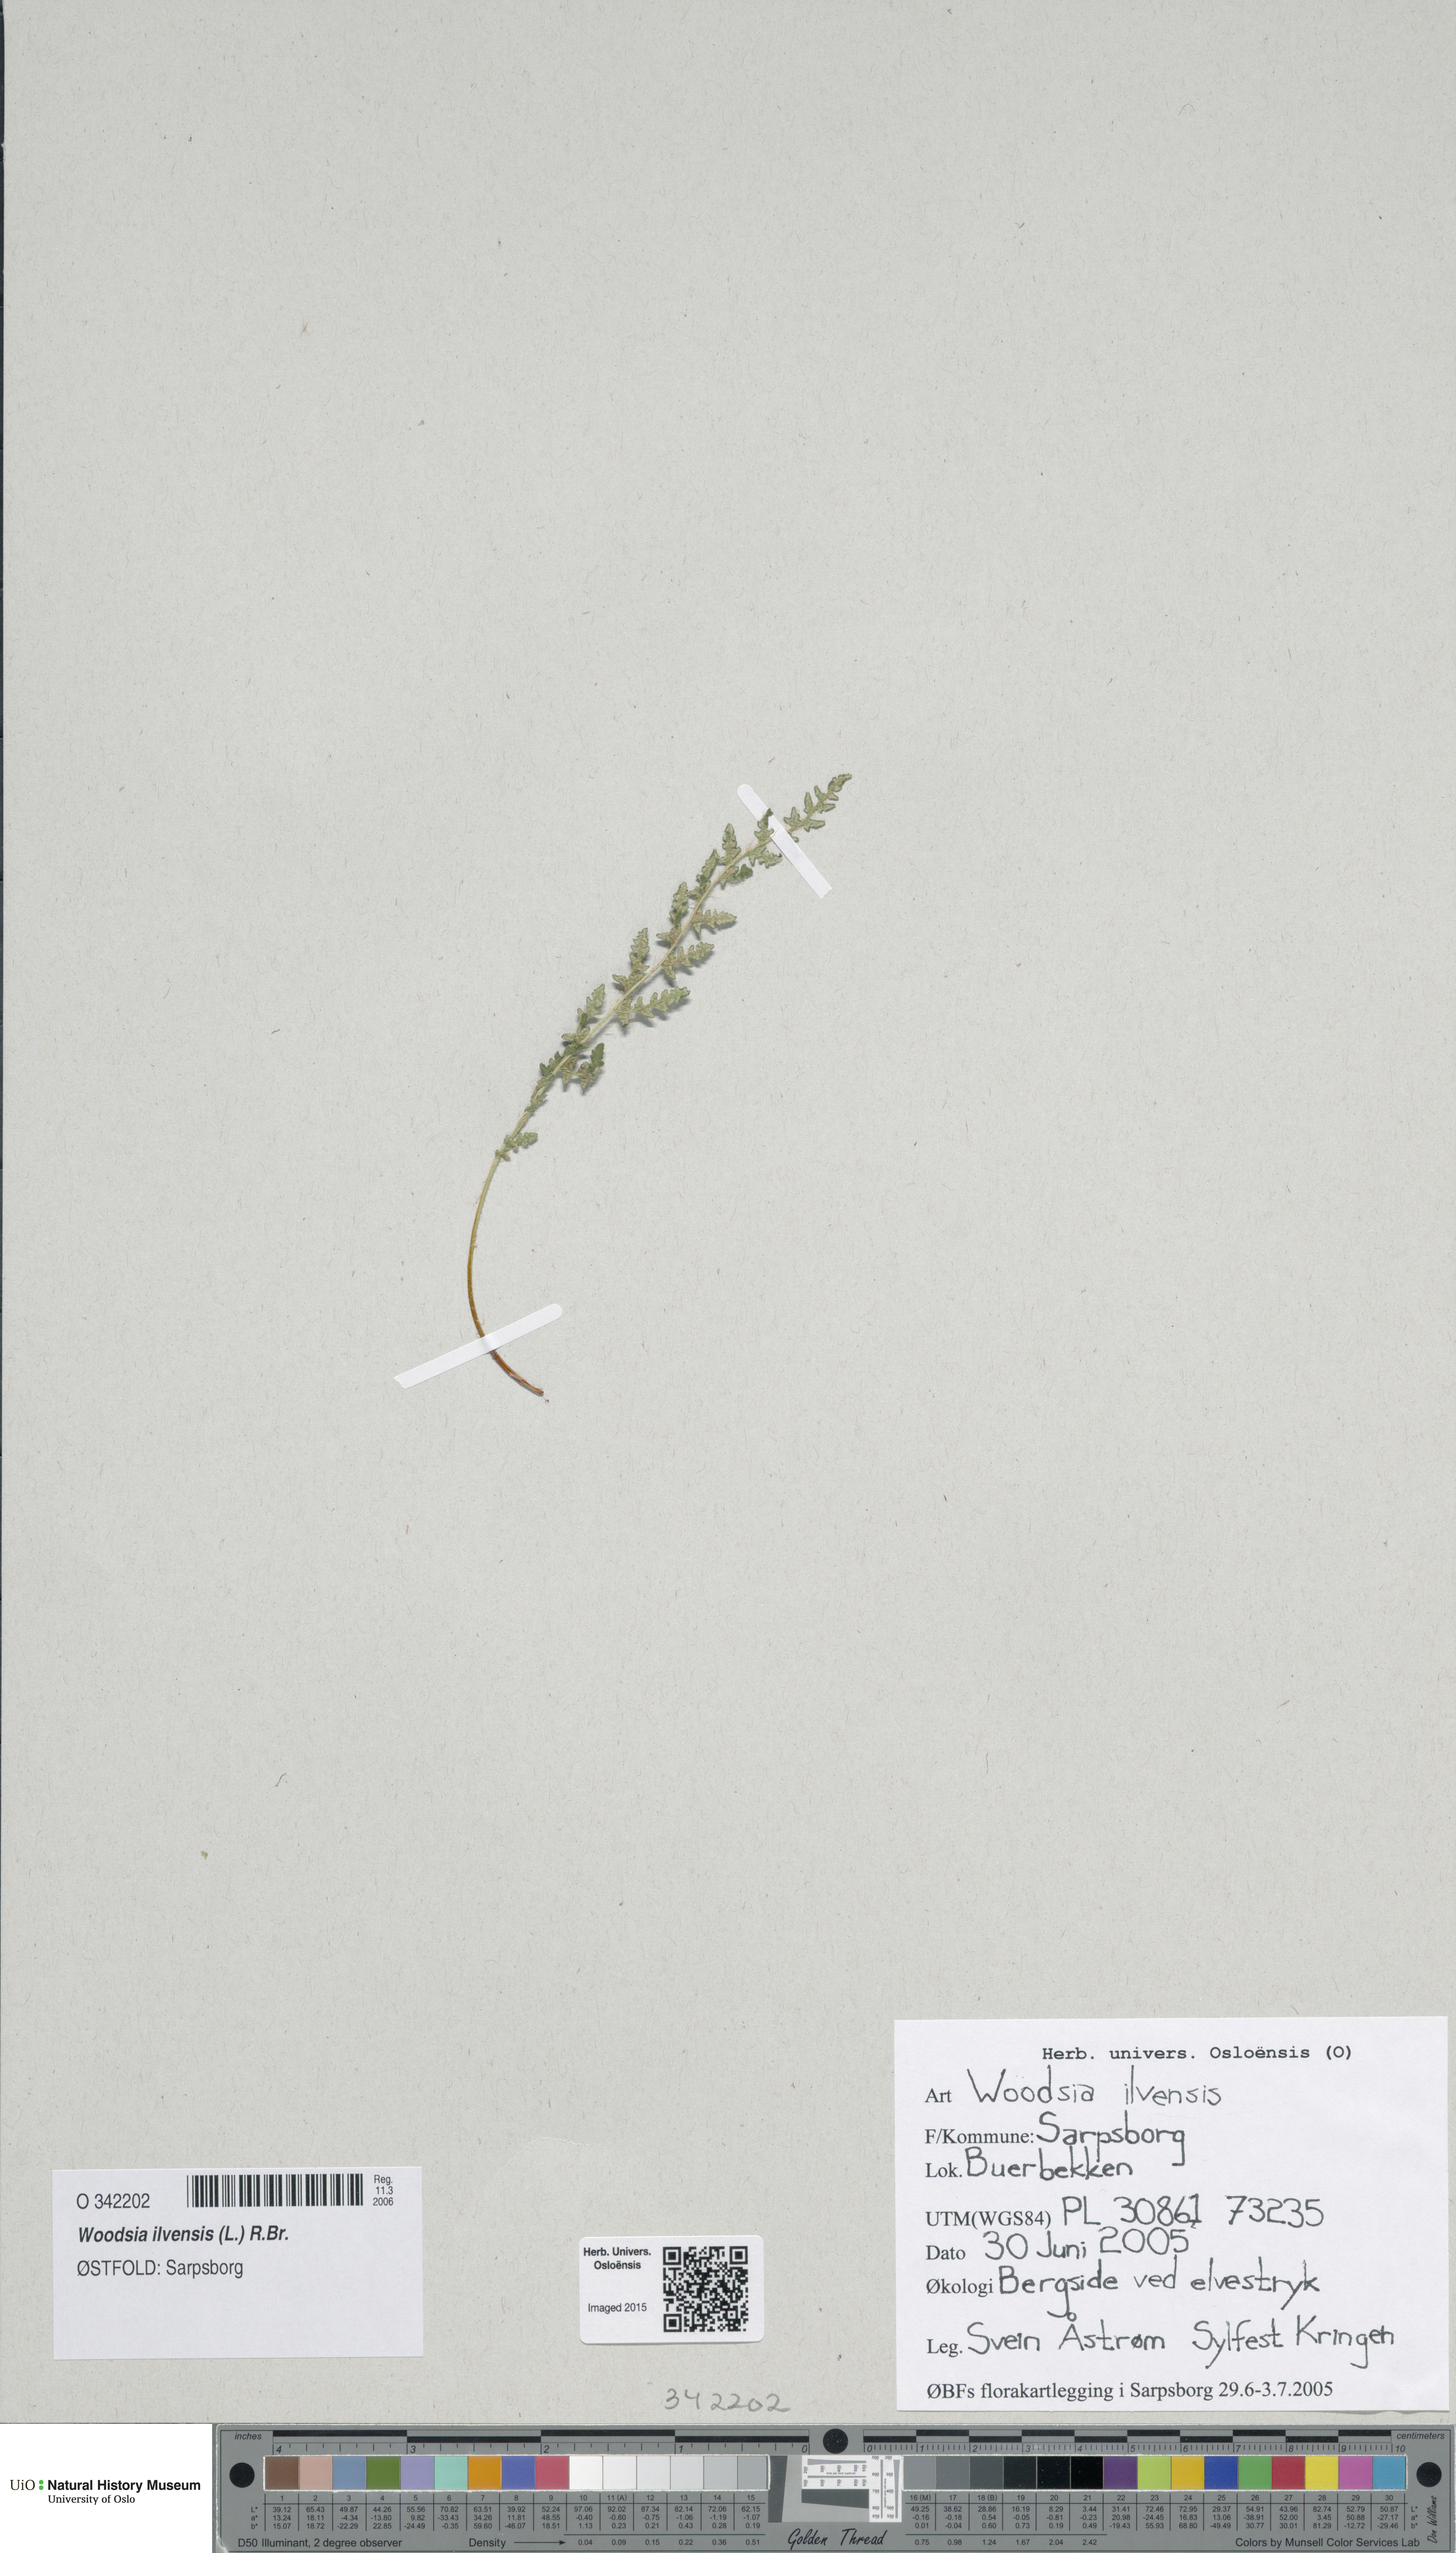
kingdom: Plantae
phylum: Tracheophyta
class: Polypodiopsida
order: Polypodiales
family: Woodsiaceae
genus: Woodsia
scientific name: Woodsia ilvensis
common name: Fragrant woodsia
